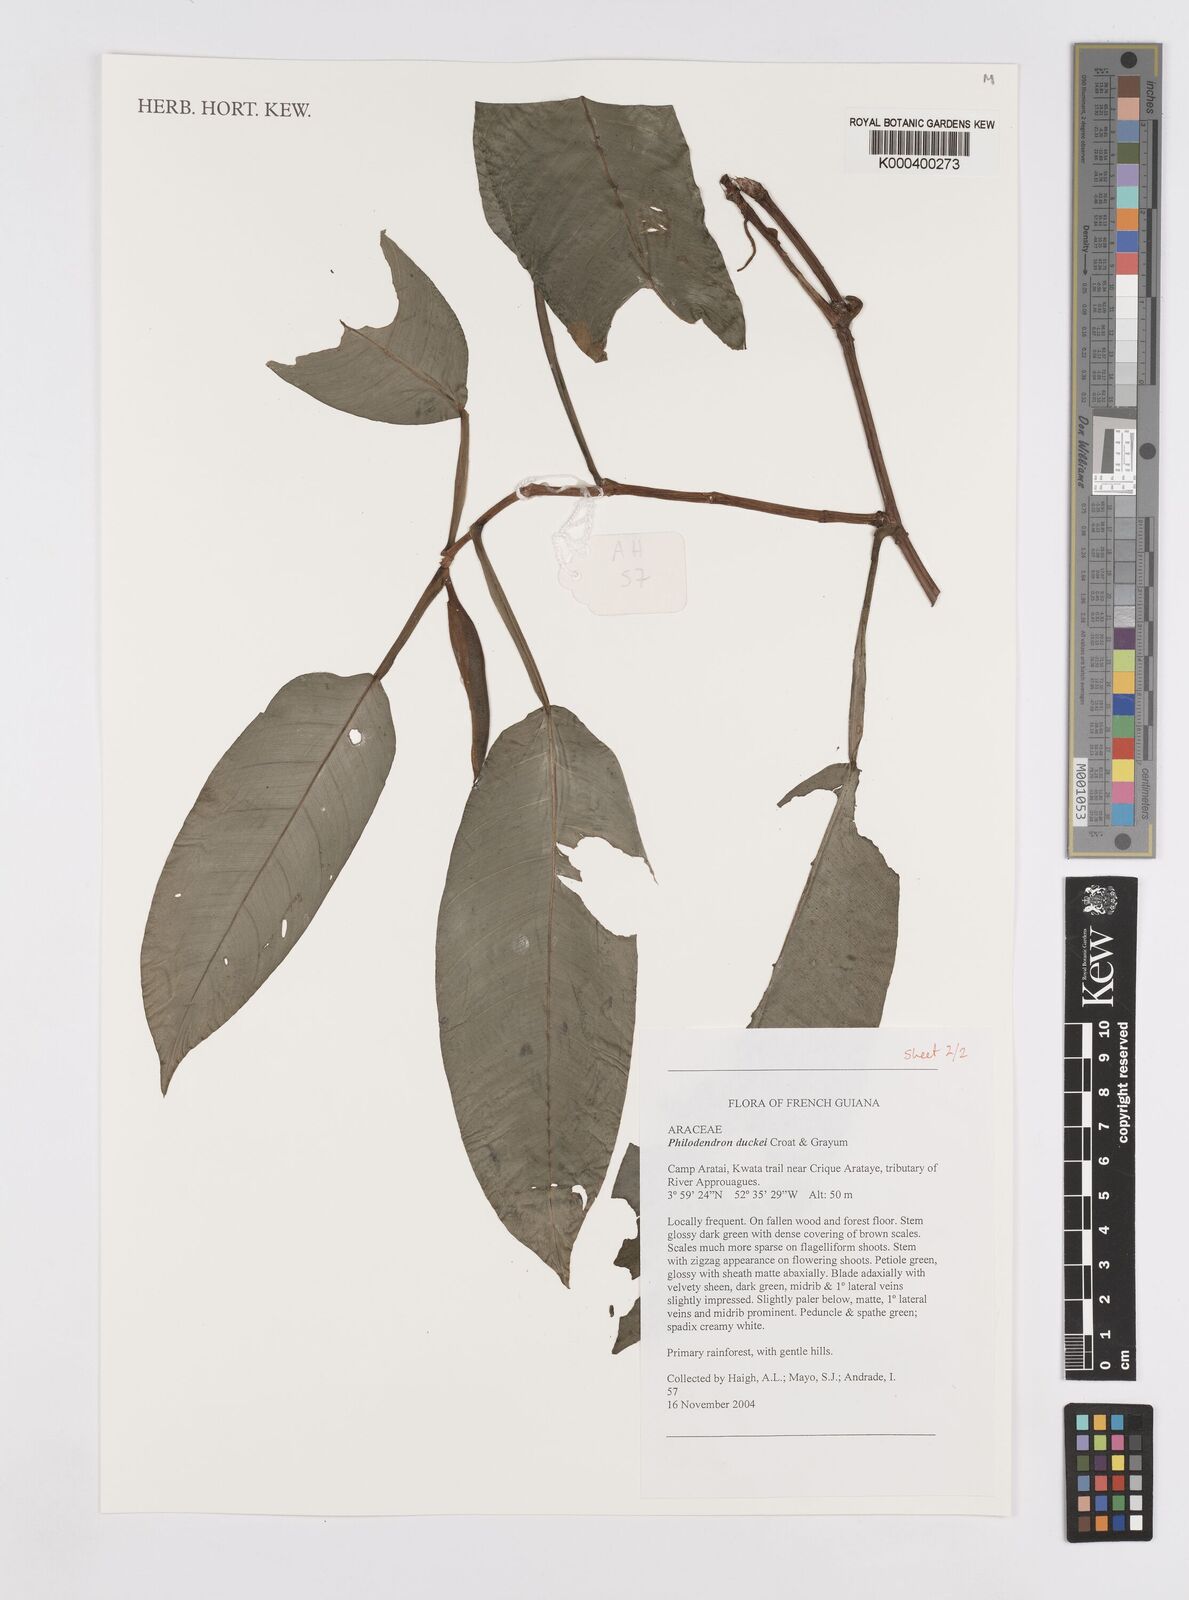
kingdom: Plantae
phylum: Tracheophyta
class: Liliopsida
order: Alismatales
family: Araceae
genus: Philodendron
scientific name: Philodendron duckei
